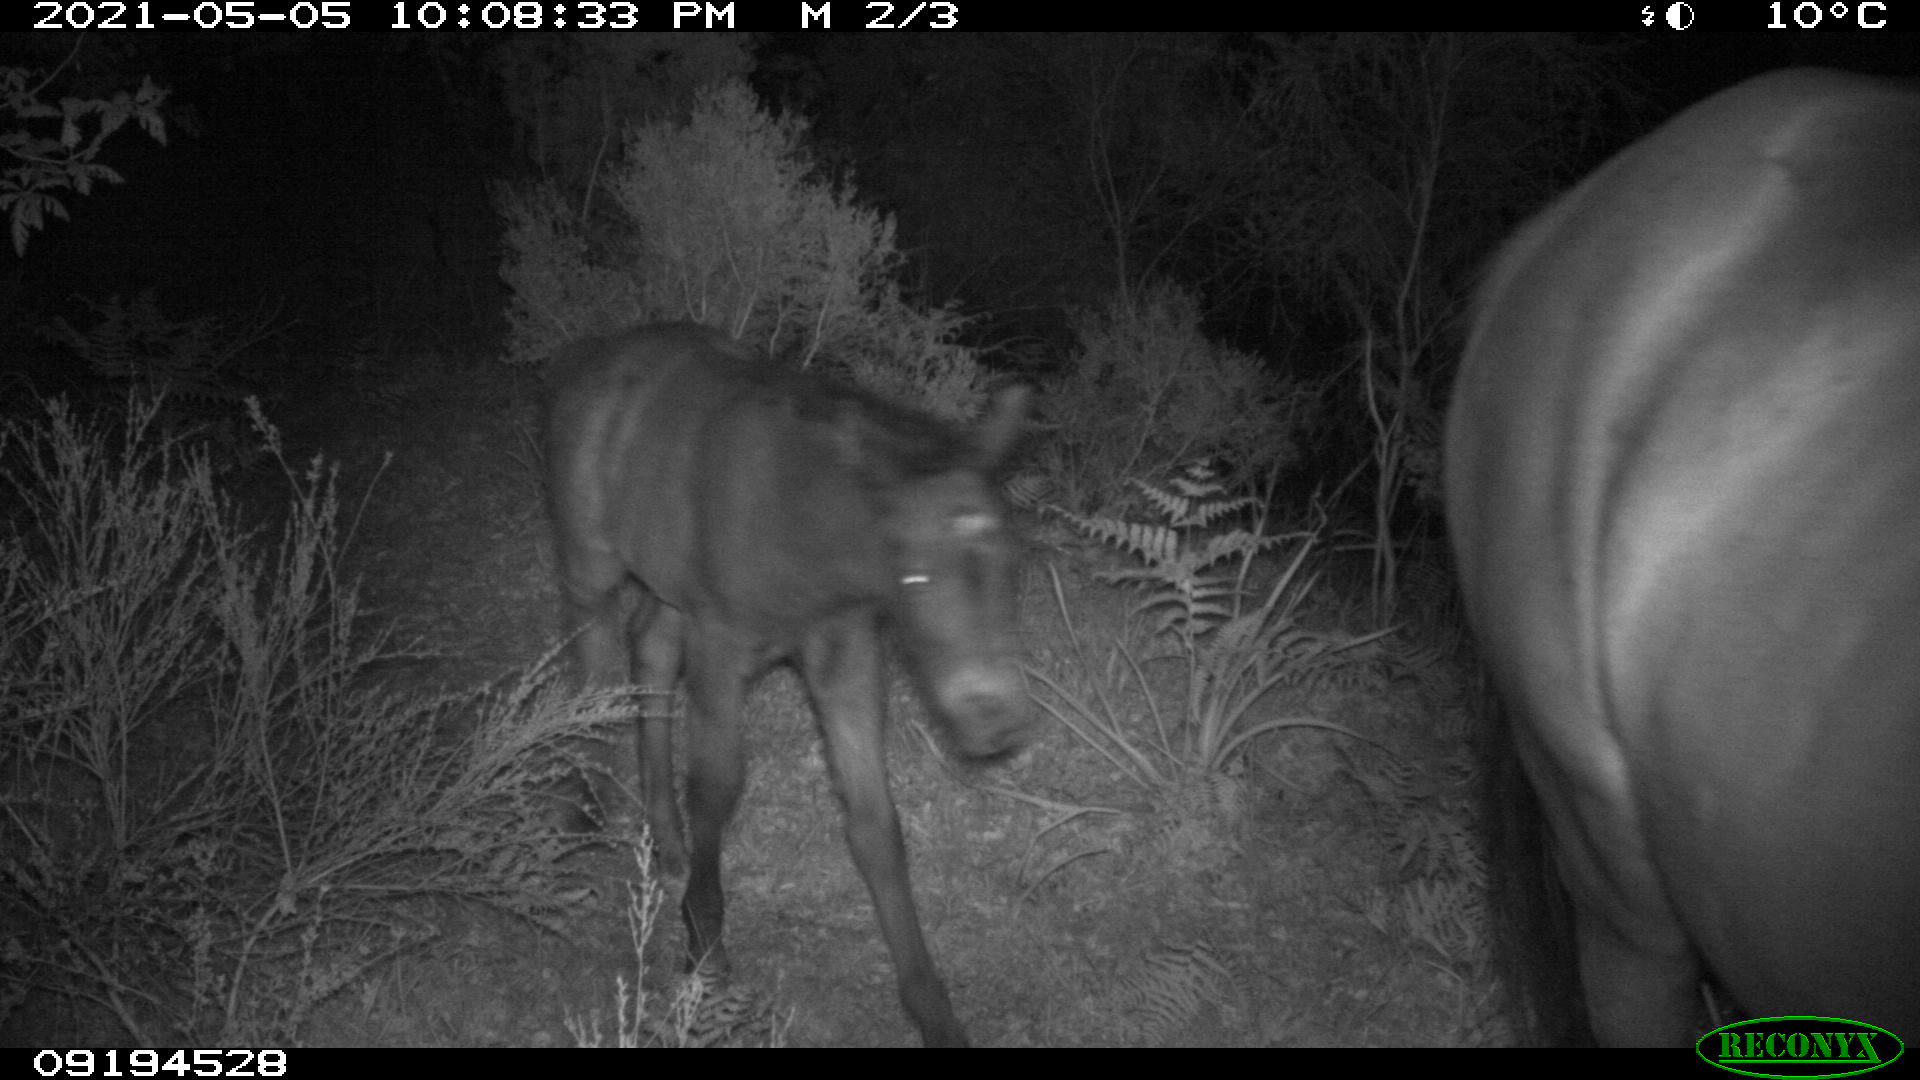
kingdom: Animalia
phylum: Chordata
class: Mammalia
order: Perissodactyla
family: Equidae
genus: Equus
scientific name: Equus caballus
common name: Horse
